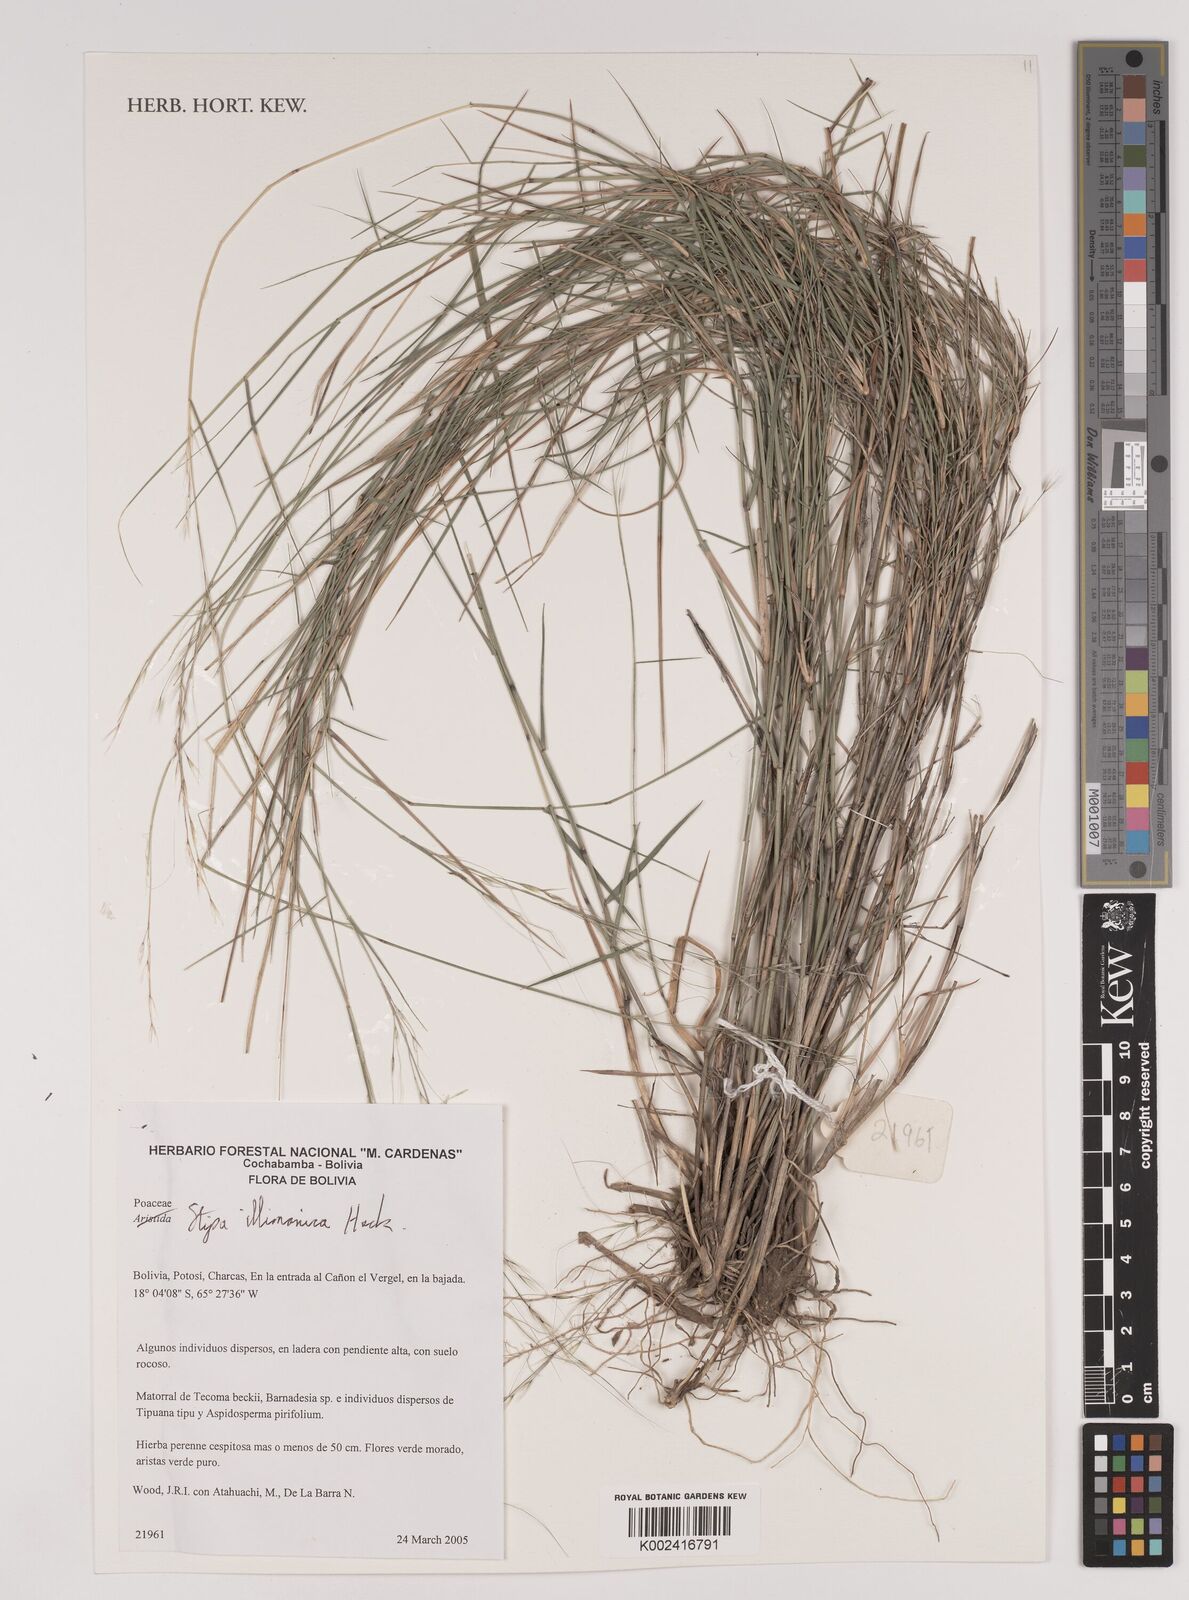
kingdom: Plantae
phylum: Tracheophyta
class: Liliopsida
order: Poales
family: Poaceae
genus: Stipa
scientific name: Stipa illimanica
